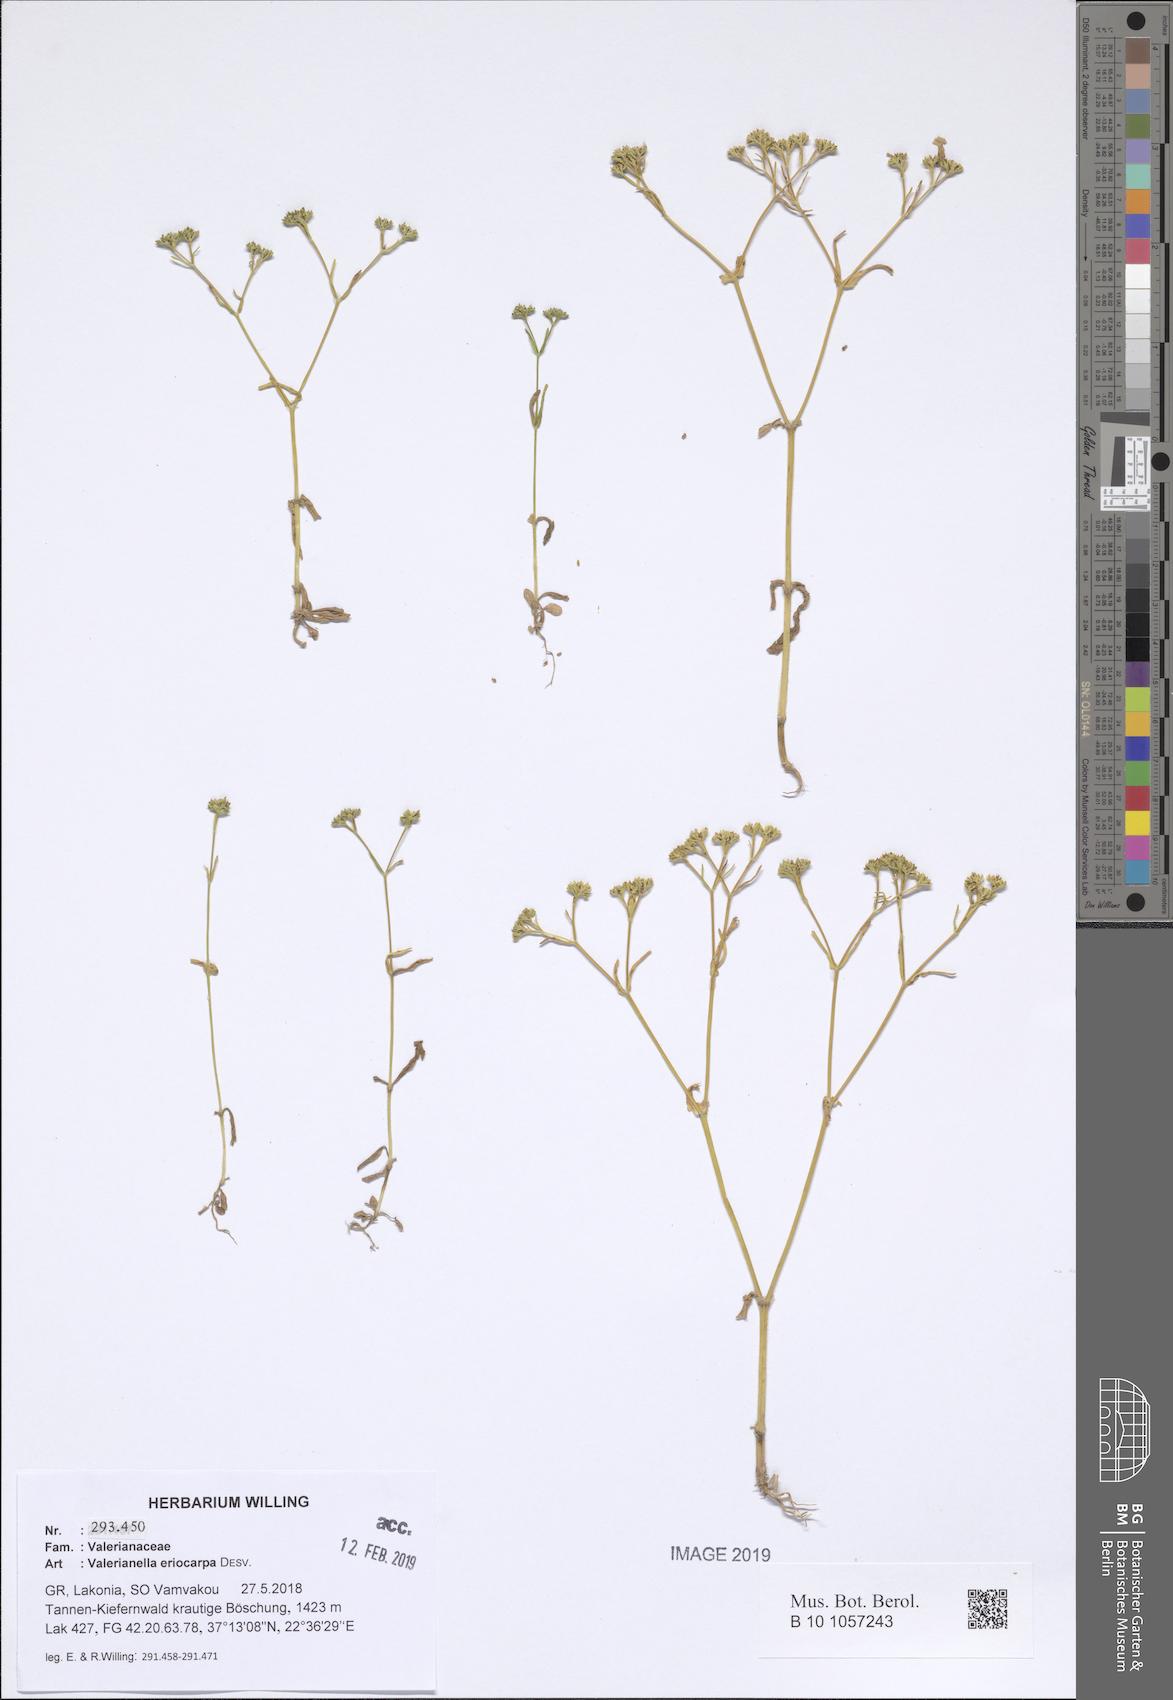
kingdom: Plantae
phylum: Tracheophyta
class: Magnoliopsida
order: Dipsacales
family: Caprifoliaceae
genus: Valerianella
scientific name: Valerianella eriocarpa
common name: Hairy-fruited cornsalad
